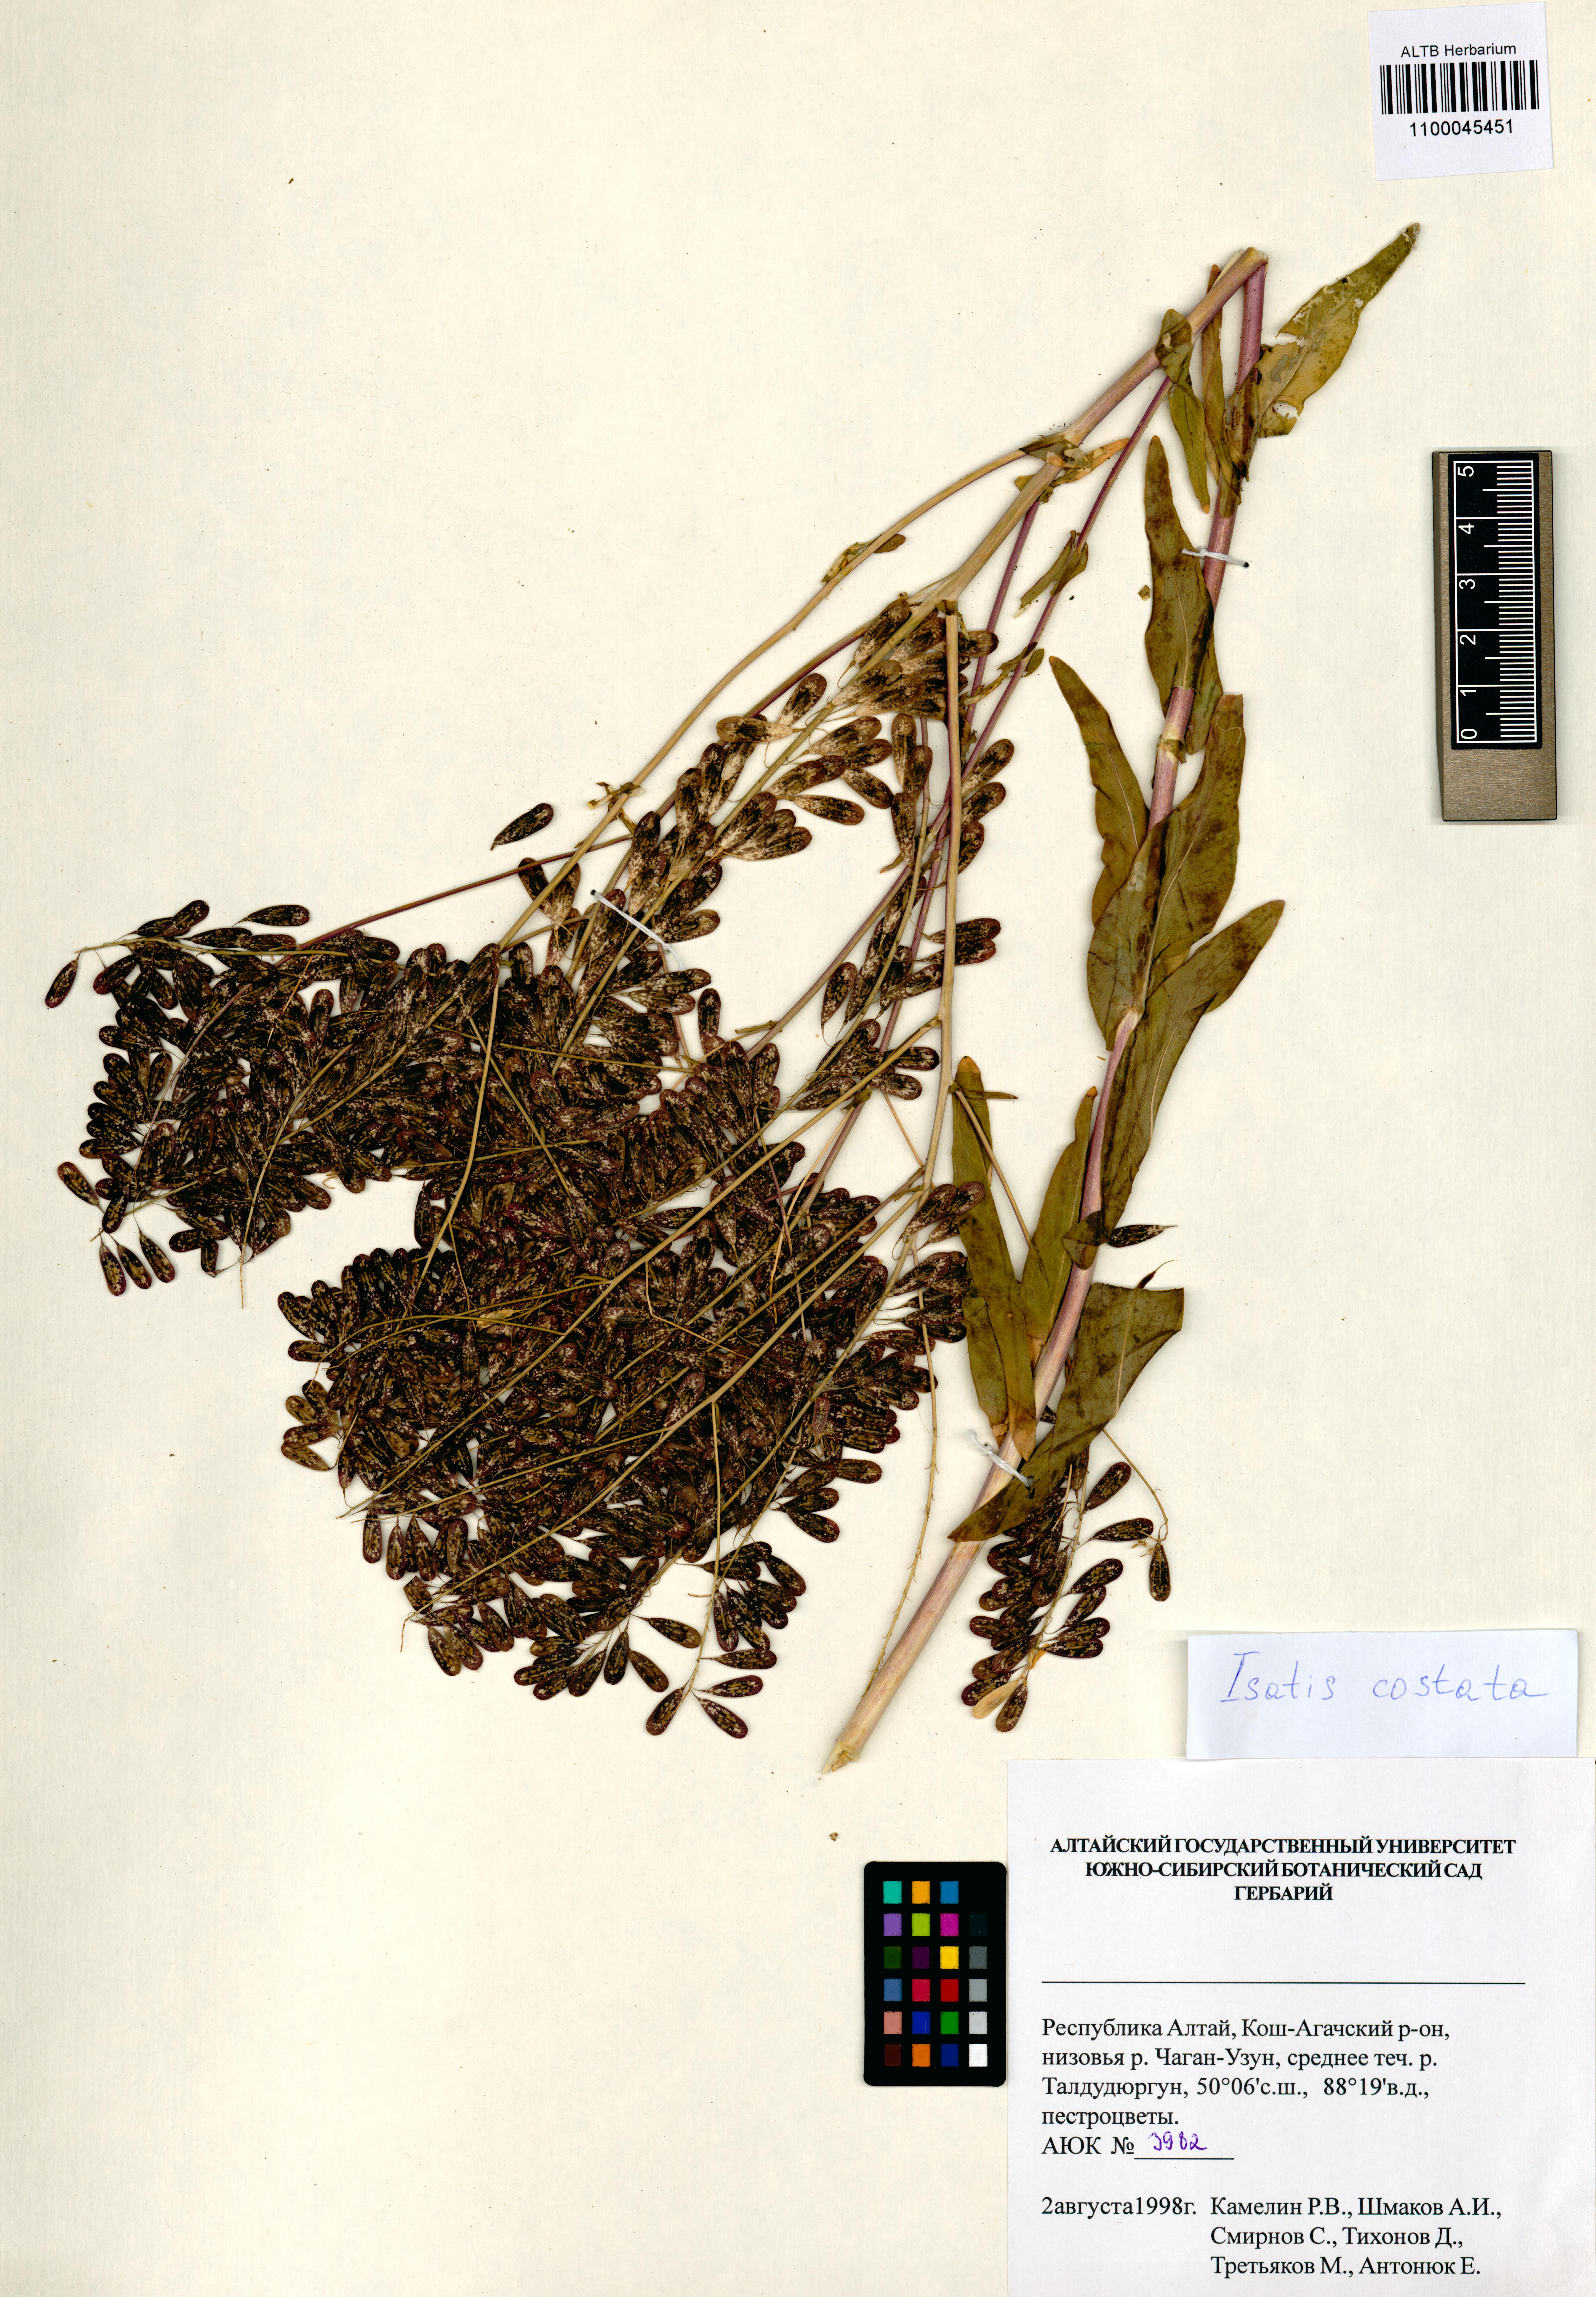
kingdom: Plantae
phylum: Tracheophyta
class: Magnoliopsida
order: Brassicales
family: Brassicaceae
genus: Isatis
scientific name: Isatis costata
